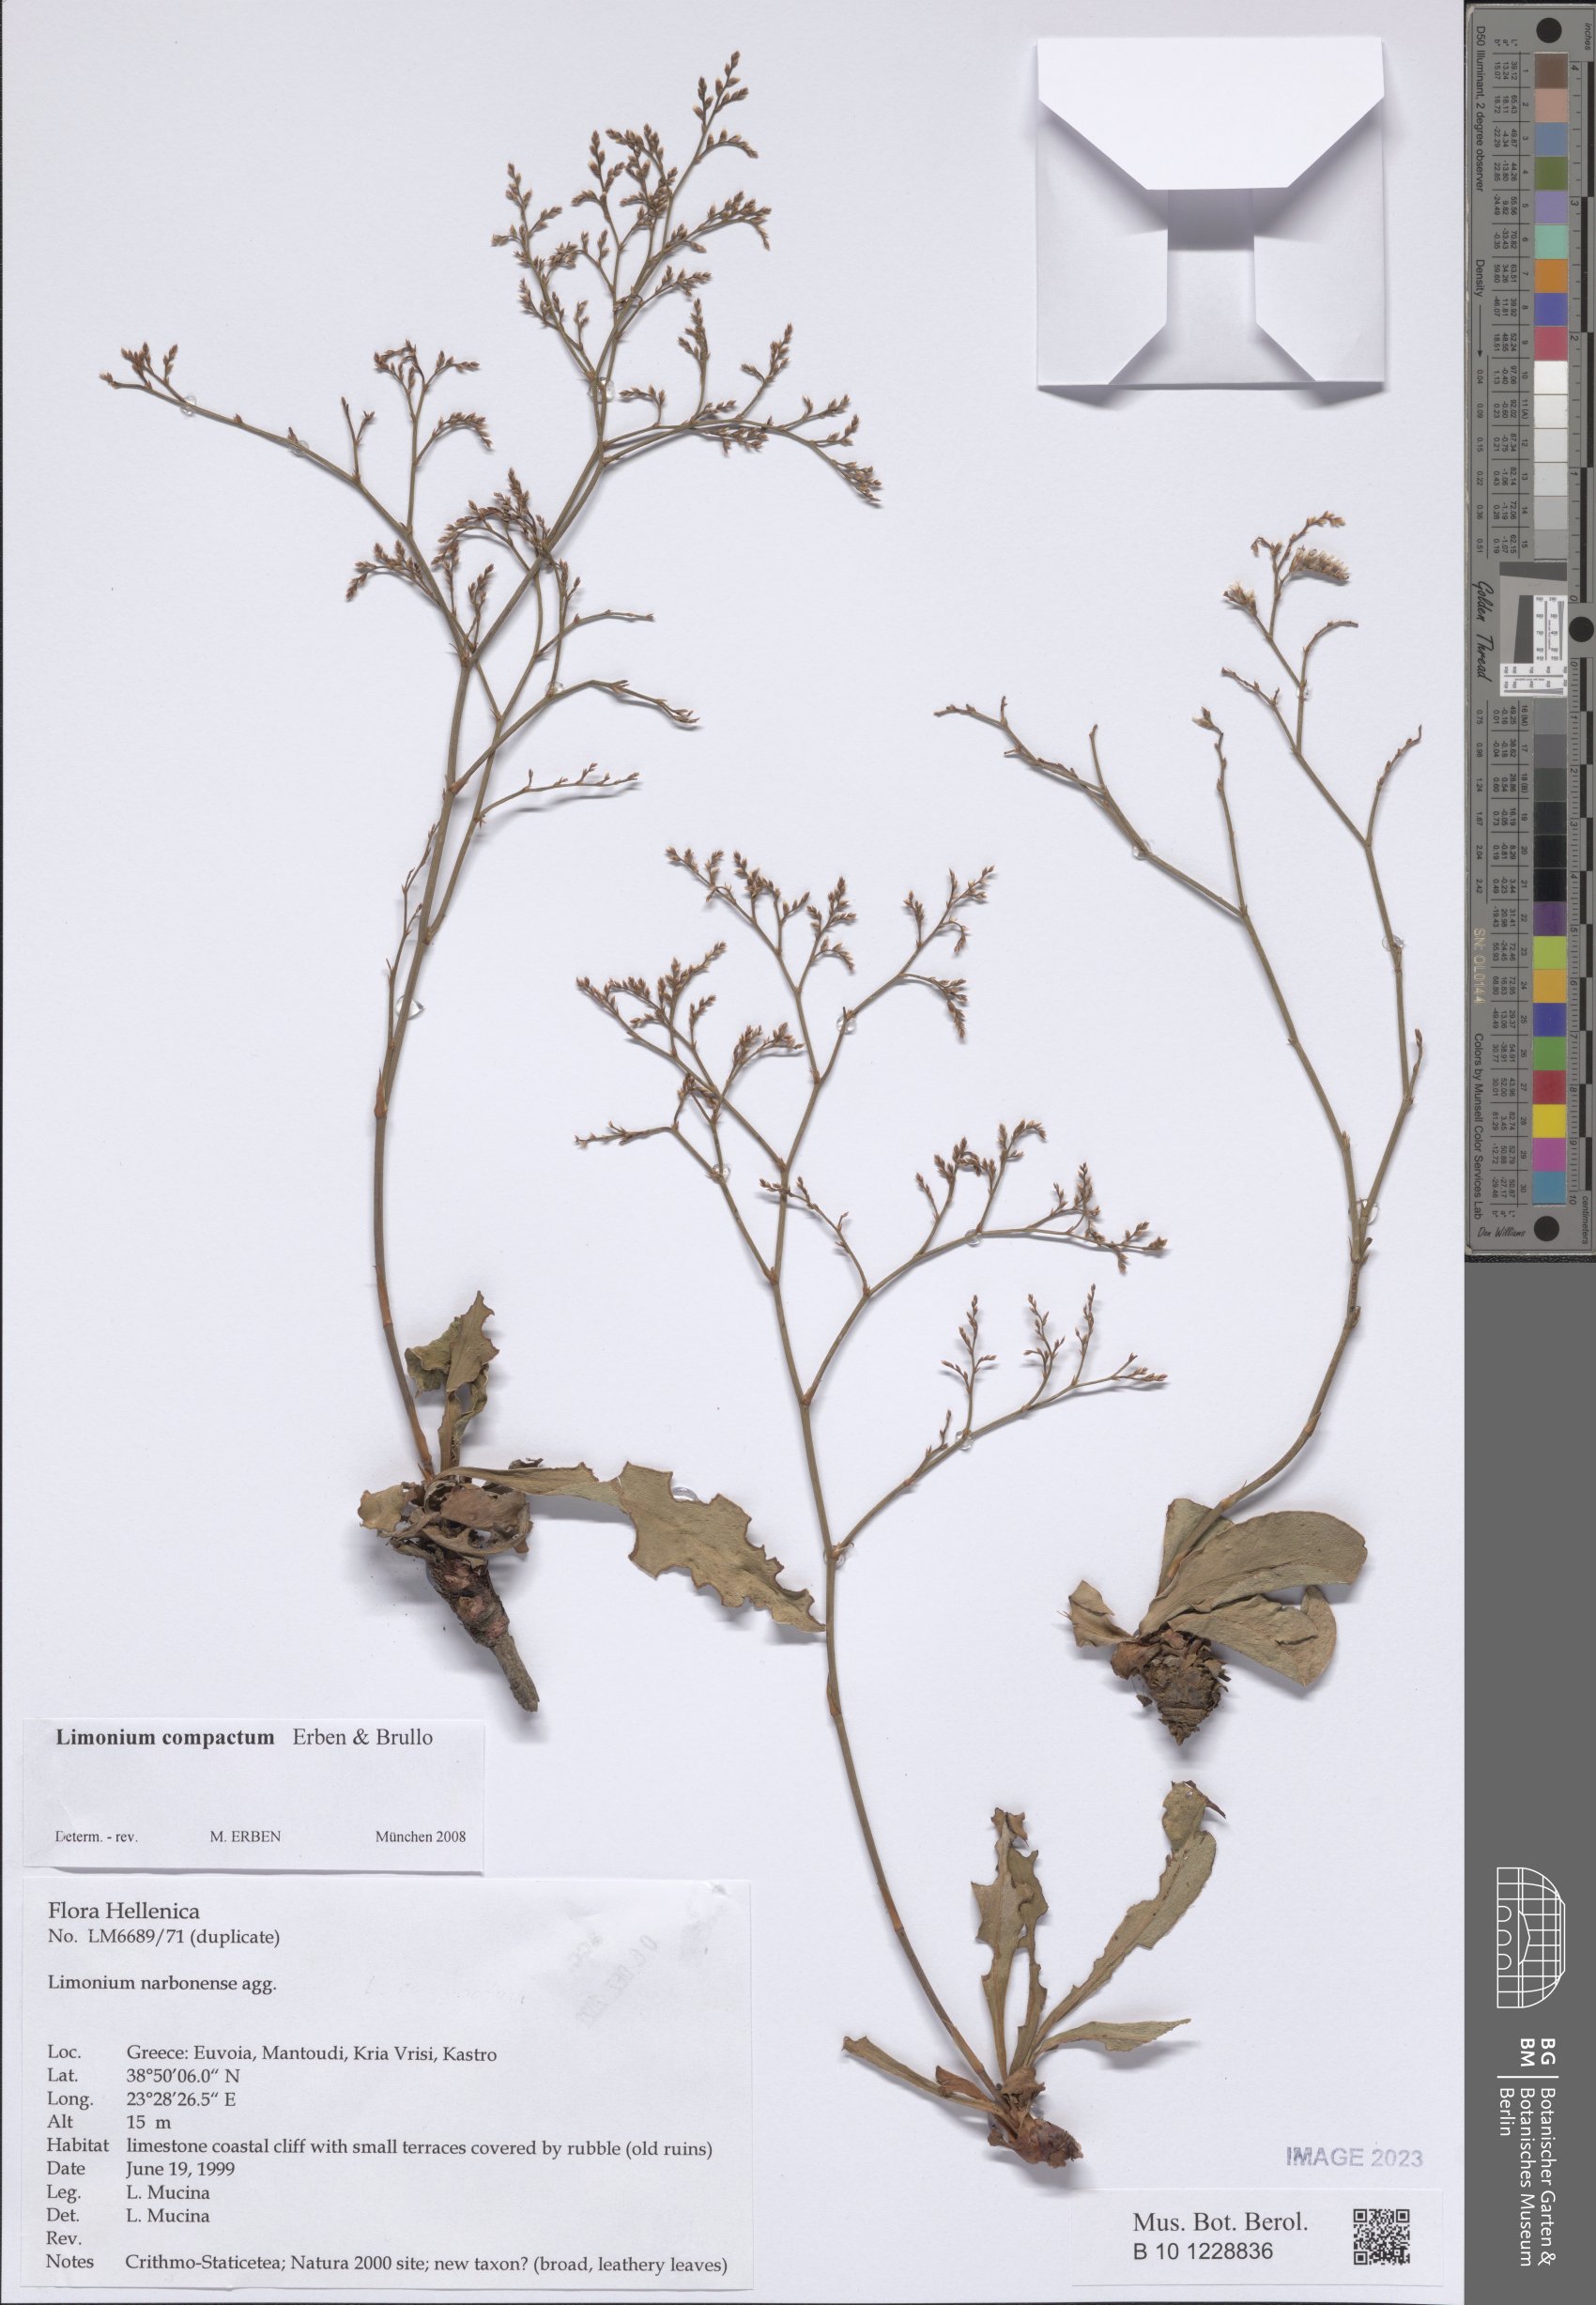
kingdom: Plantae
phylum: Tracheophyta
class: Magnoliopsida
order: Caryophyllales
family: Plumbaginaceae
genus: Limonium
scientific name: Limonium compactum
